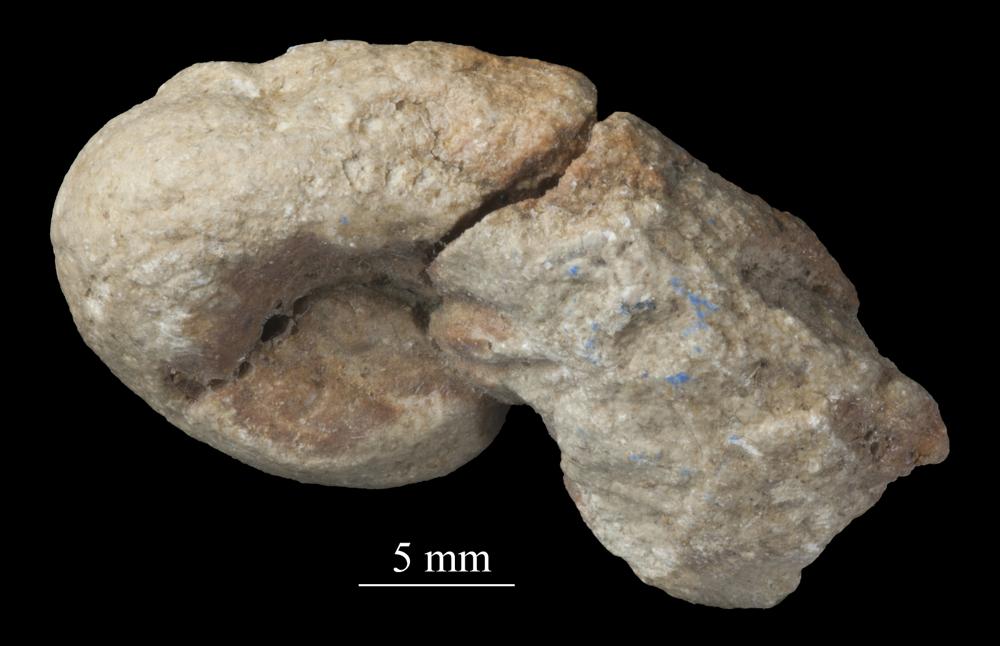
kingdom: Animalia
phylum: Mollusca
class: Gastropoda
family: Bellerophontidae
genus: Bellerophon
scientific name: Bellerophon
